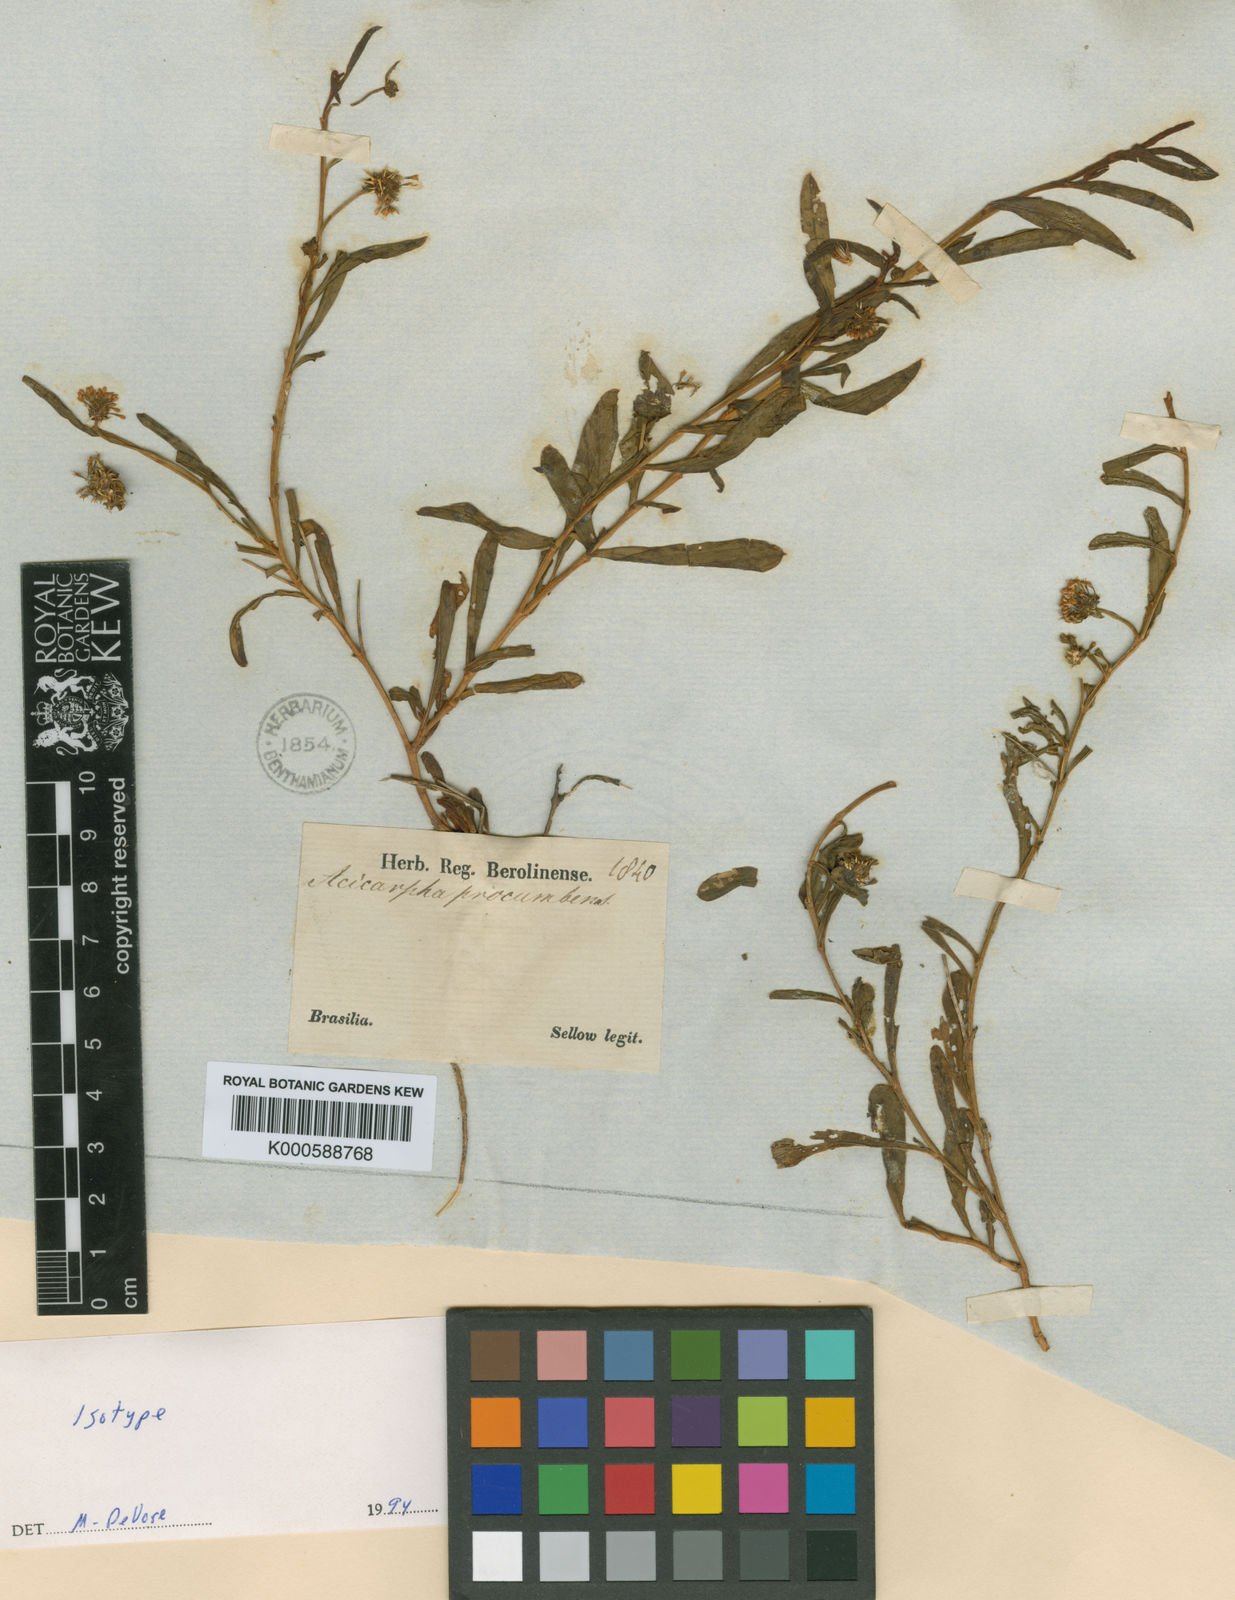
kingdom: Plantae
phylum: Tracheophyta
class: Magnoliopsida
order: Asterales
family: Calyceraceae
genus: Acicarpha
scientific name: Acicarpha procumbens
